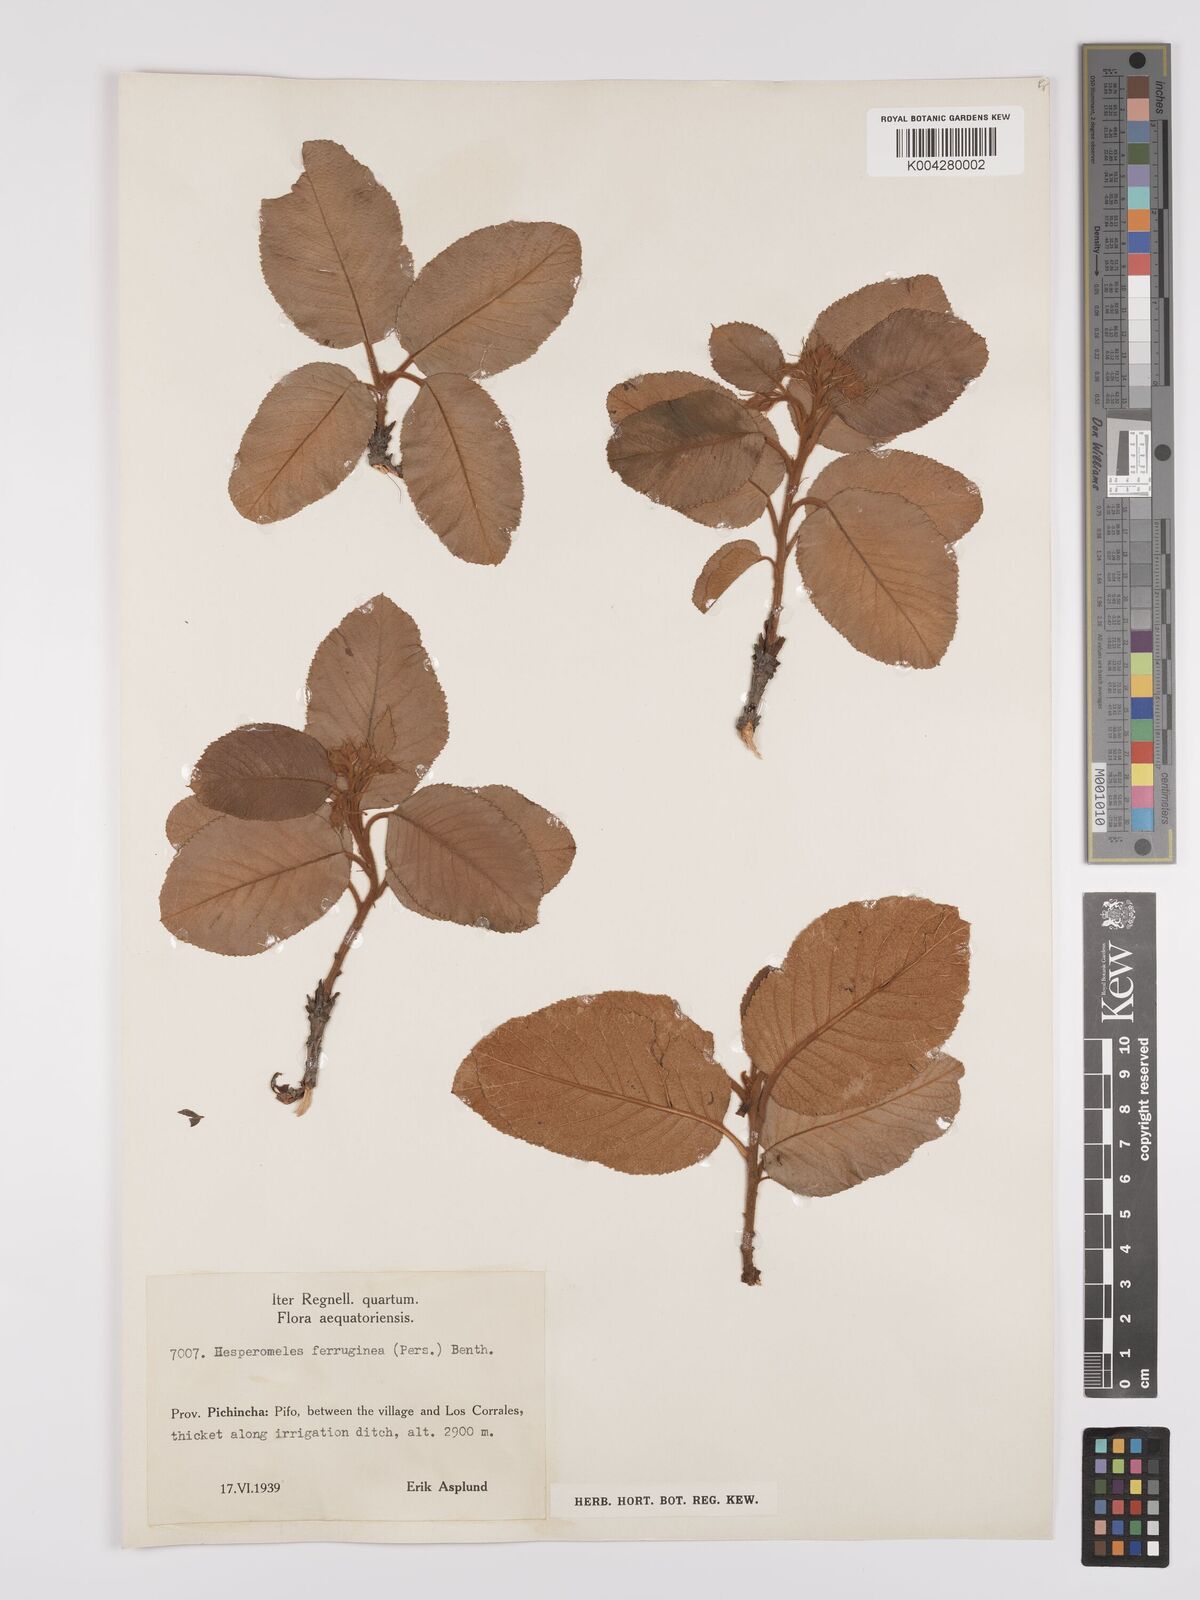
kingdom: Plantae
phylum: Tracheophyta
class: Magnoliopsida
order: Rosales
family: Rosaceae
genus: Hesperomeles
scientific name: Hesperomeles ferruginea
